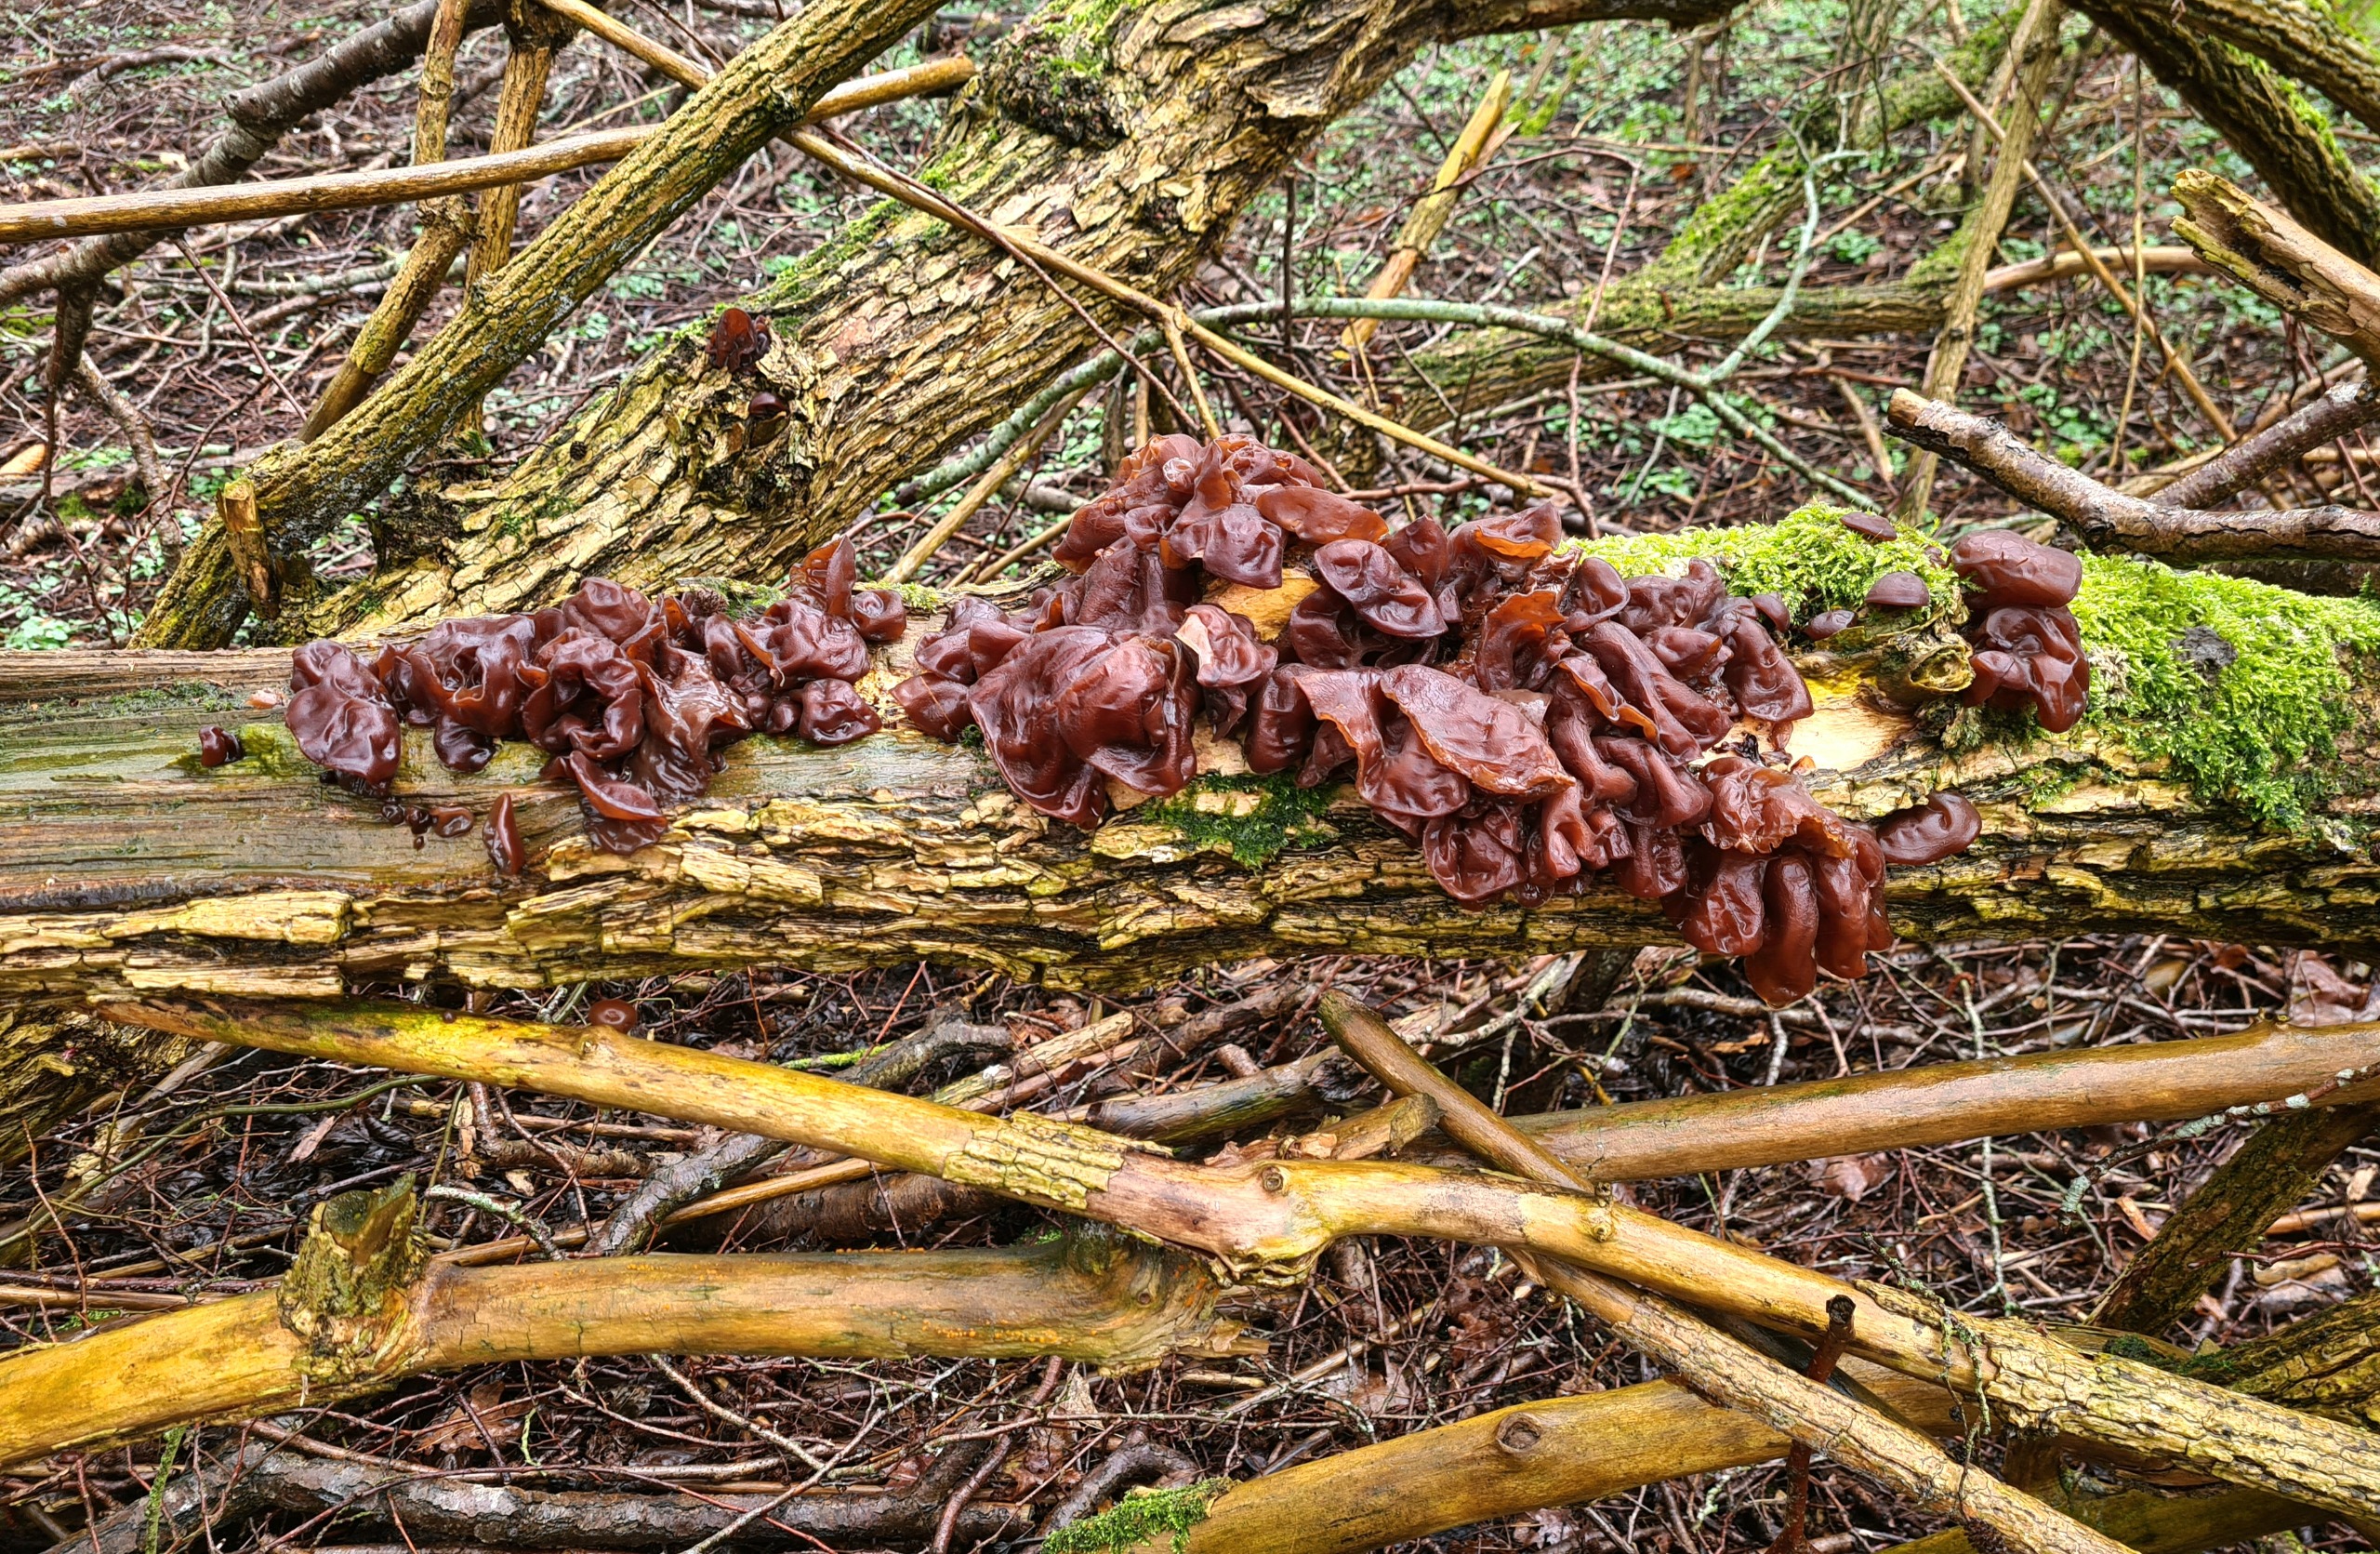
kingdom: Fungi
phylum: Basidiomycota
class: Agaricomycetes
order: Auriculariales
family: Auriculariaceae
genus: Auricularia
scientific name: Auricularia auricula-judae
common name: Almindelig judasøre
